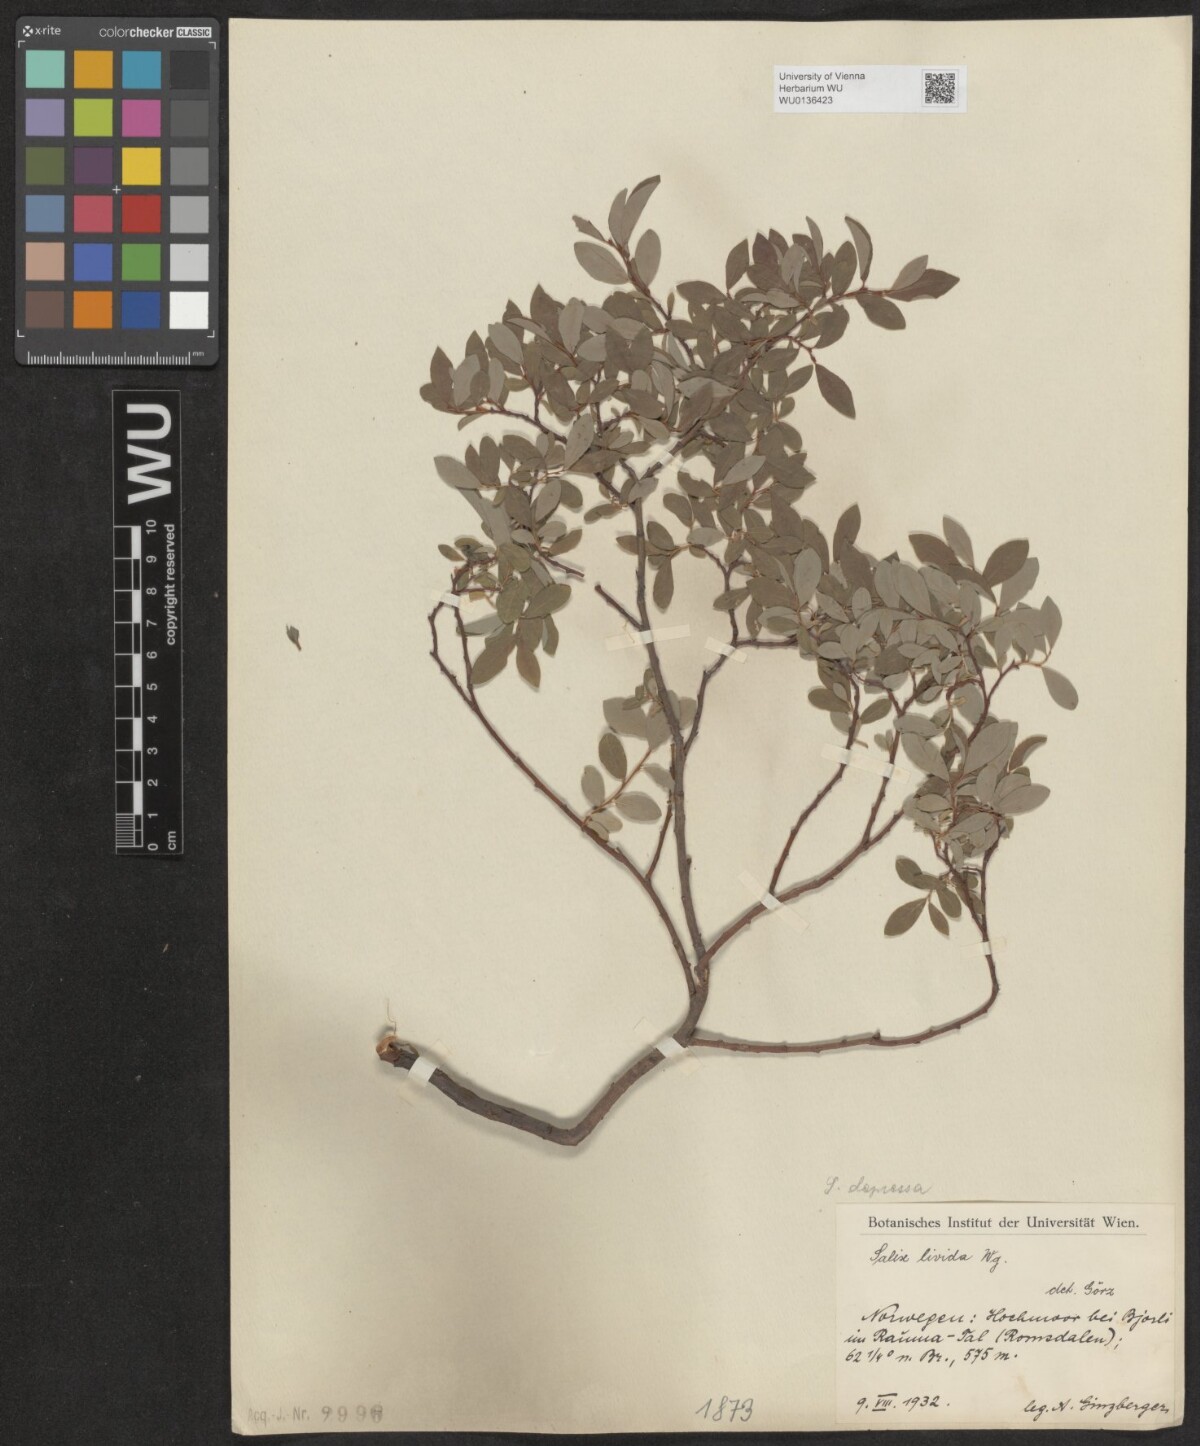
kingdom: Plantae
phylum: Tracheophyta
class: Magnoliopsida
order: Malpighiales
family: Salicaceae
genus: Salix
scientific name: Salix lanata
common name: Woolly willow
